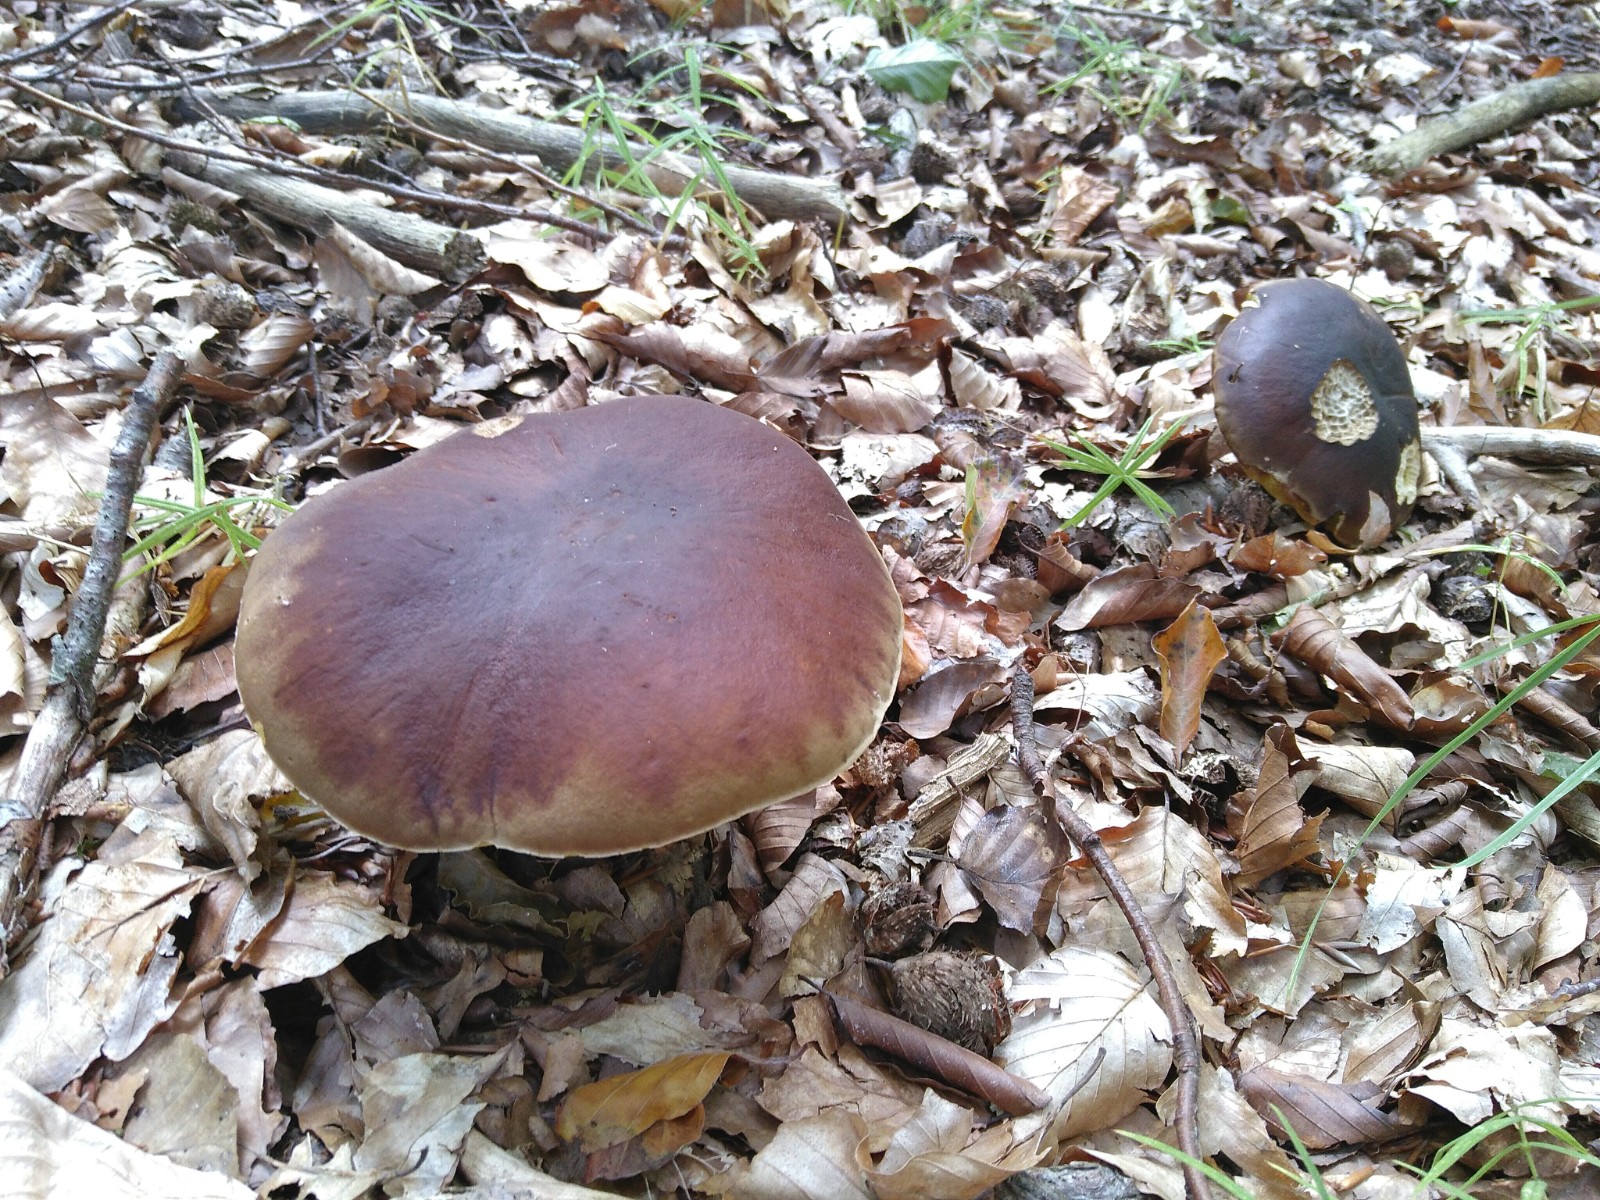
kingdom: Fungi
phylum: Basidiomycota
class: Agaricomycetes
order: Boletales
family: Boletaceae
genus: Boletus
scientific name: Boletus edulis
